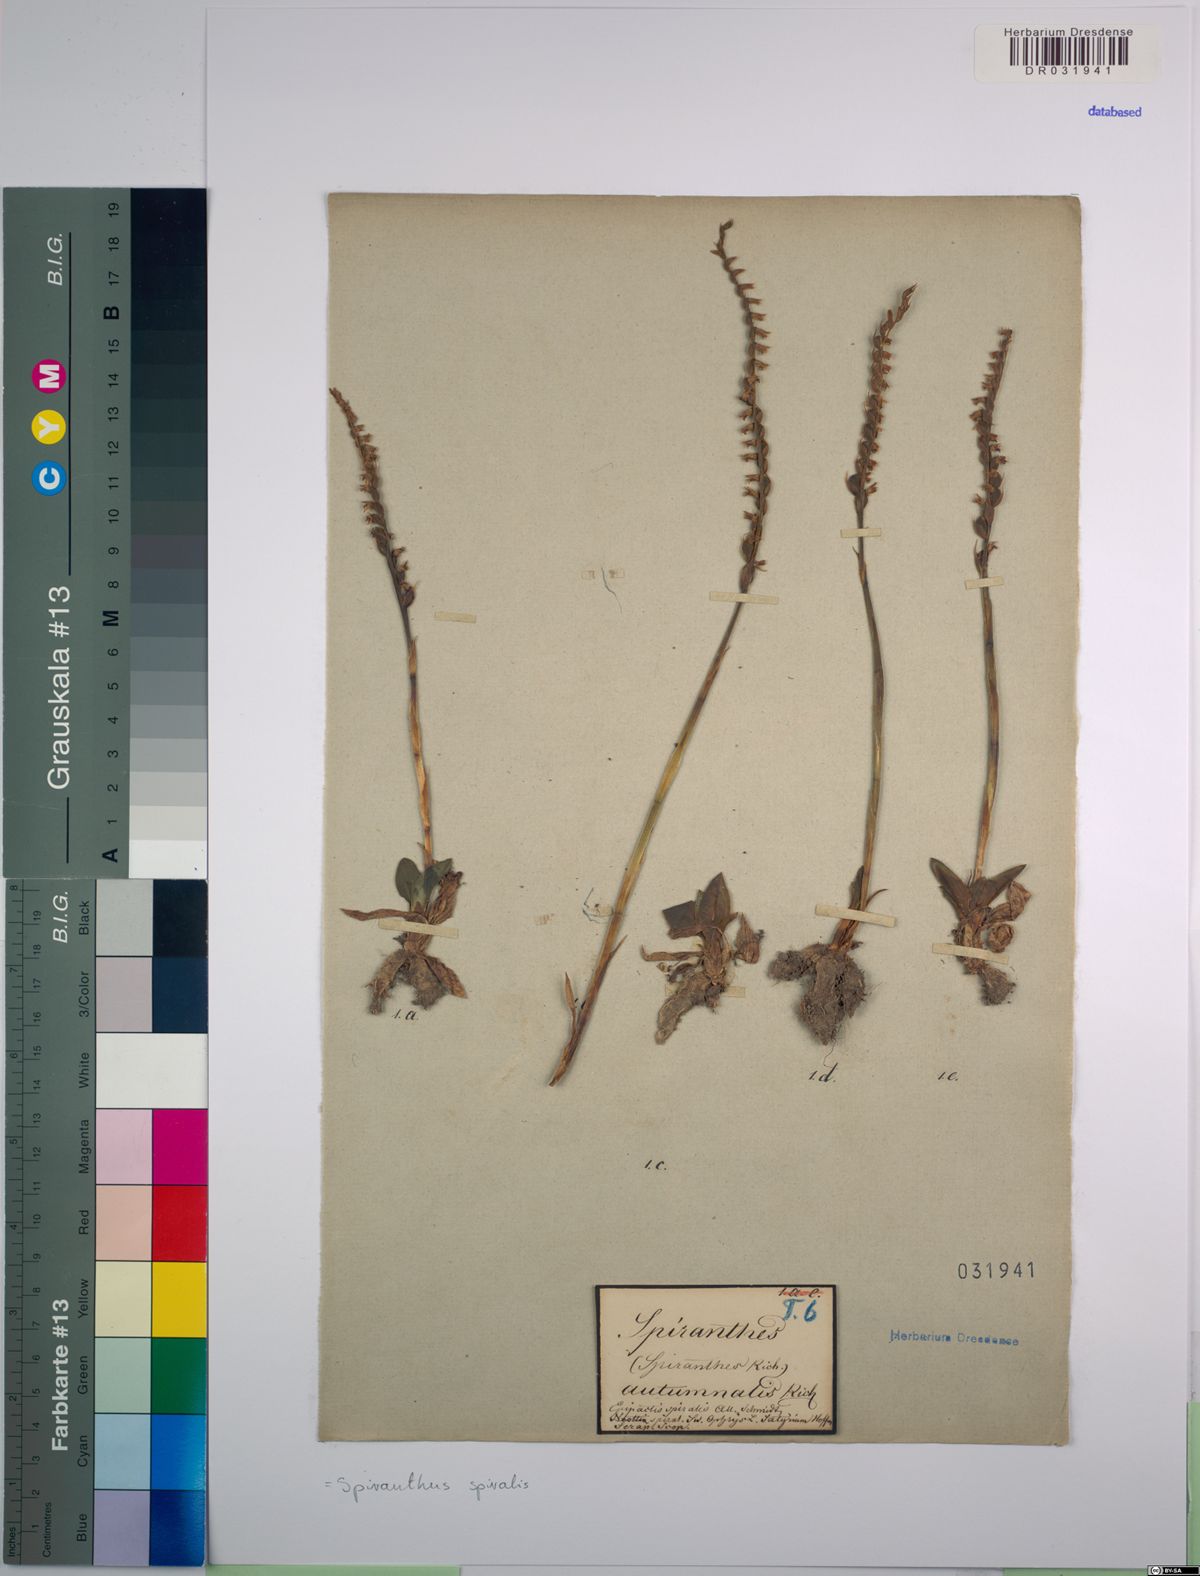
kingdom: Plantae
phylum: Tracheophyta
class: Liliopsida
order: Asparagales
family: Orchidaceae
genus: Spiranthes
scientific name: Spiranthes spiralis
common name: Autumn lady's-tresses
